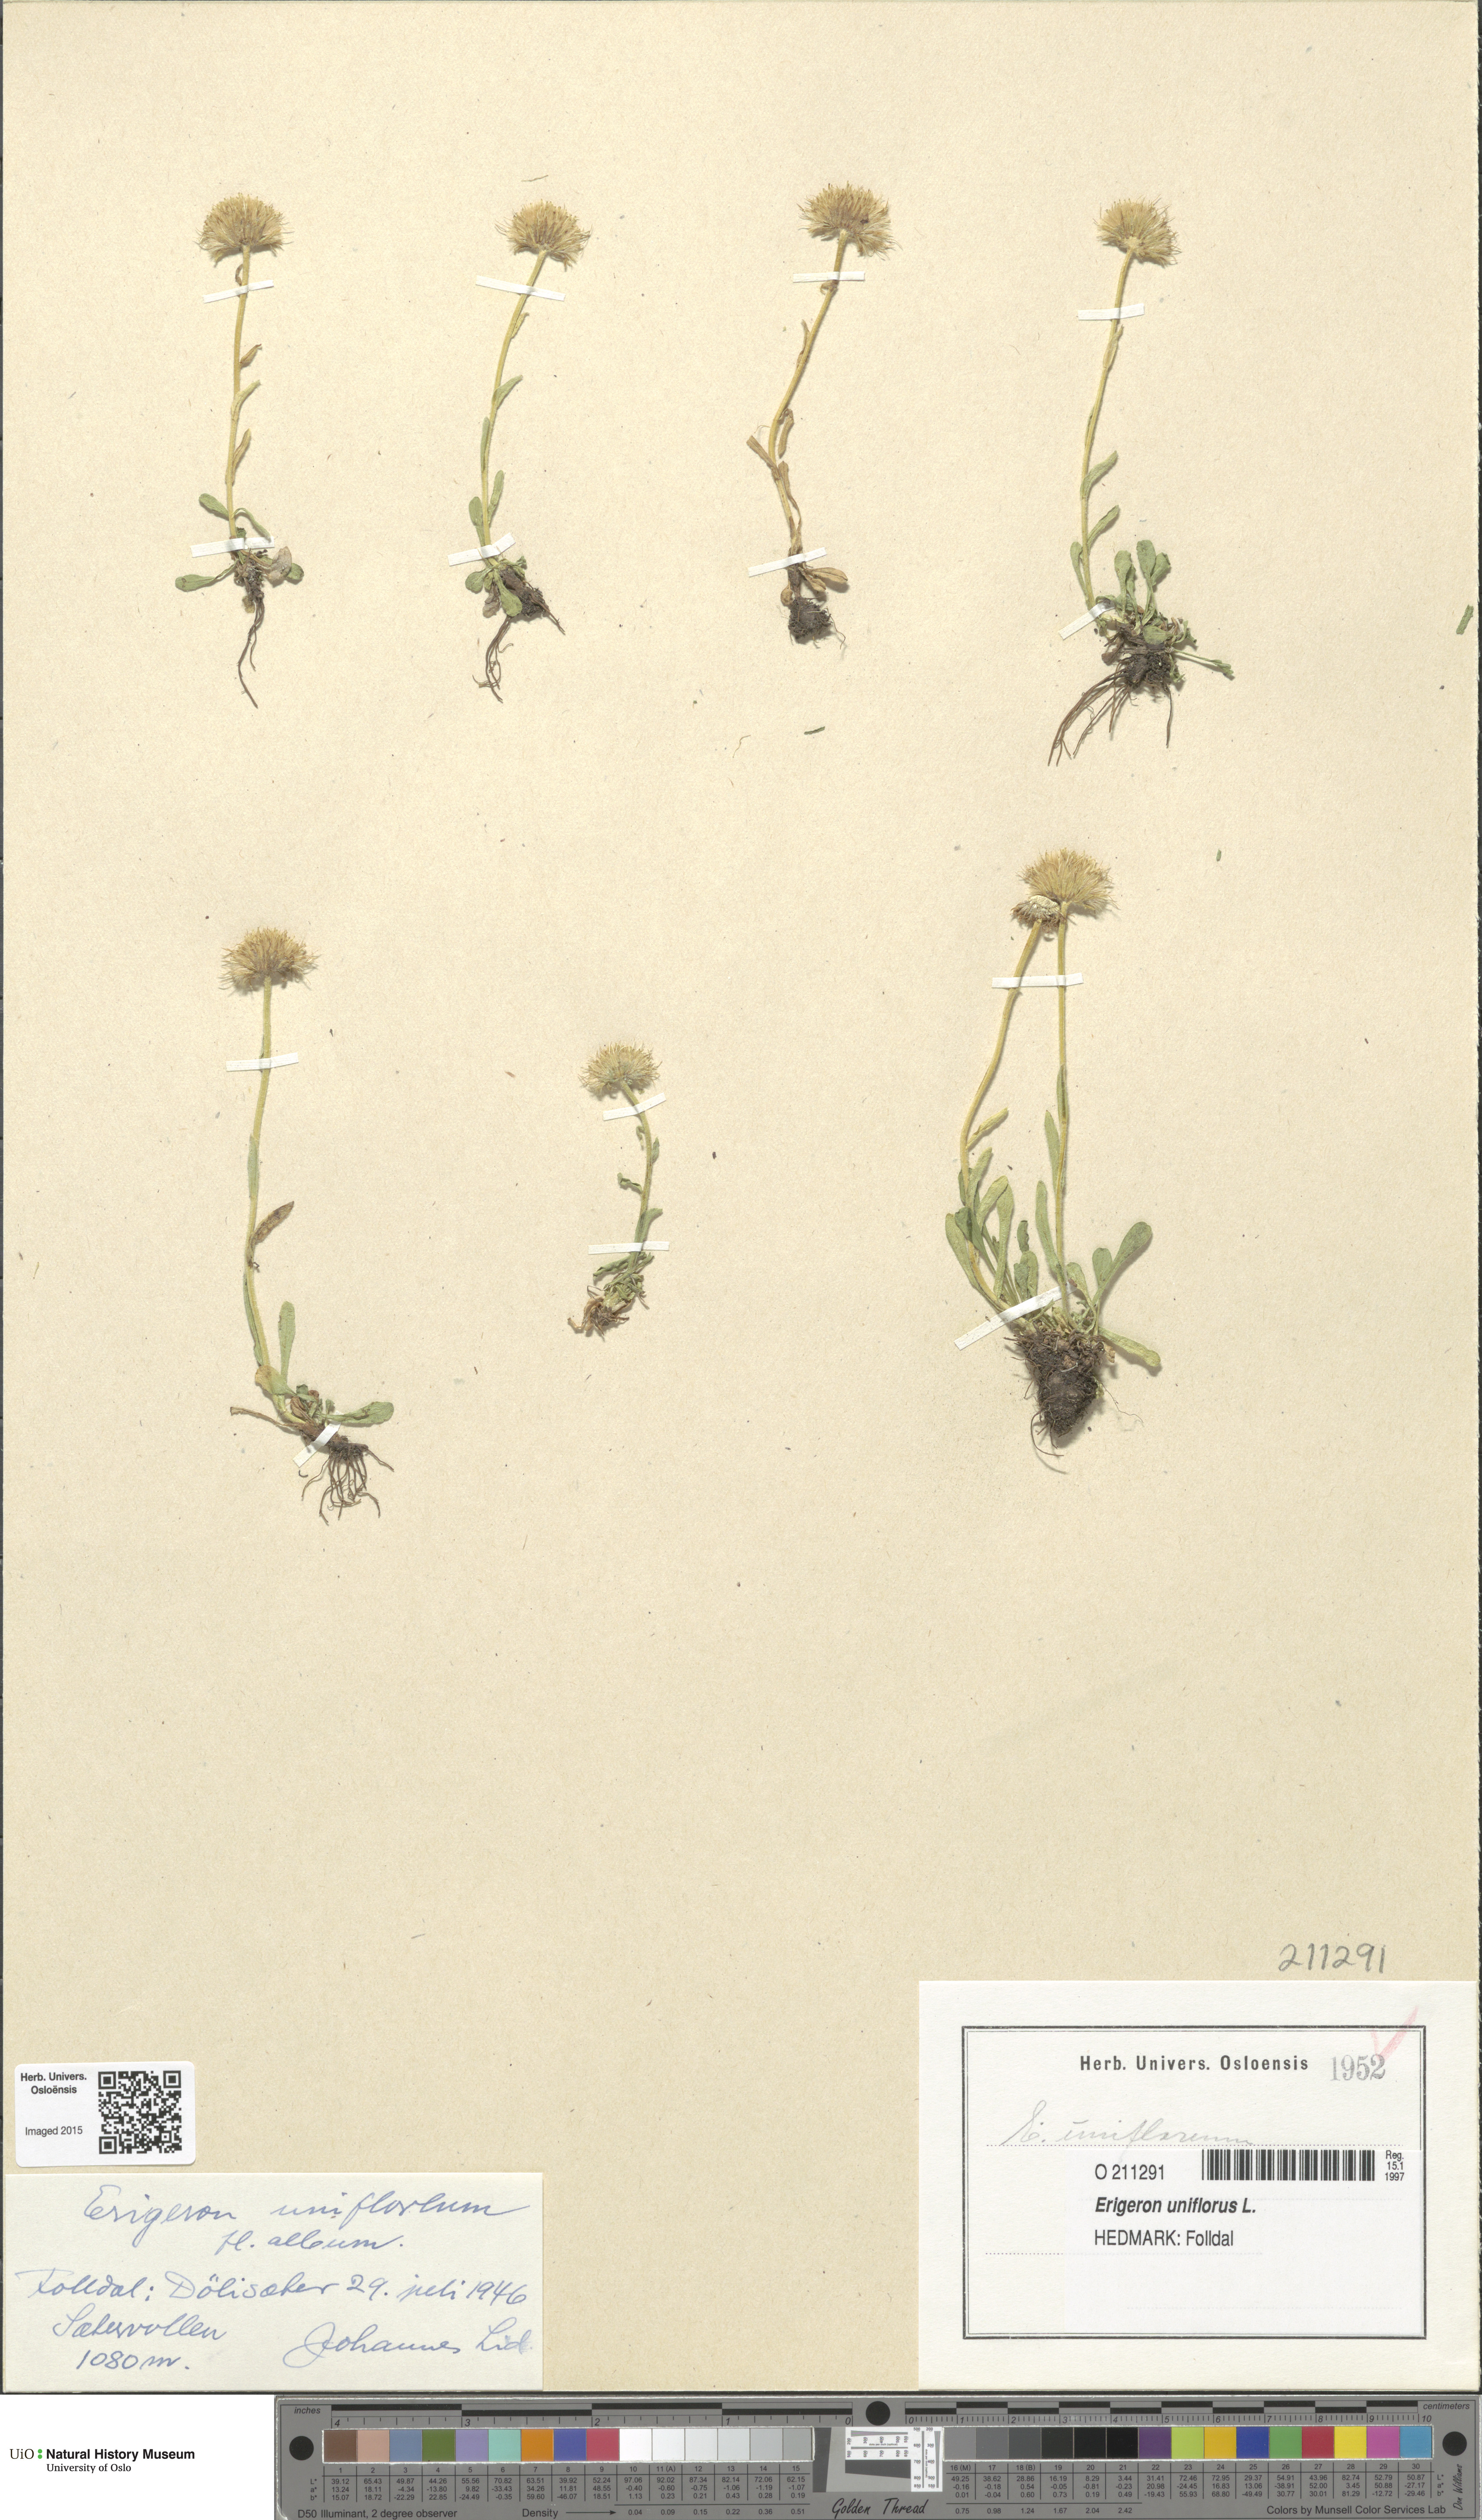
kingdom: Plantae
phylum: Tracheophyta
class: Magnoliopsida
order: Asterales
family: Asteraceae
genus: Erigeron
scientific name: Erigeron uniflorus
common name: Northern daisy
